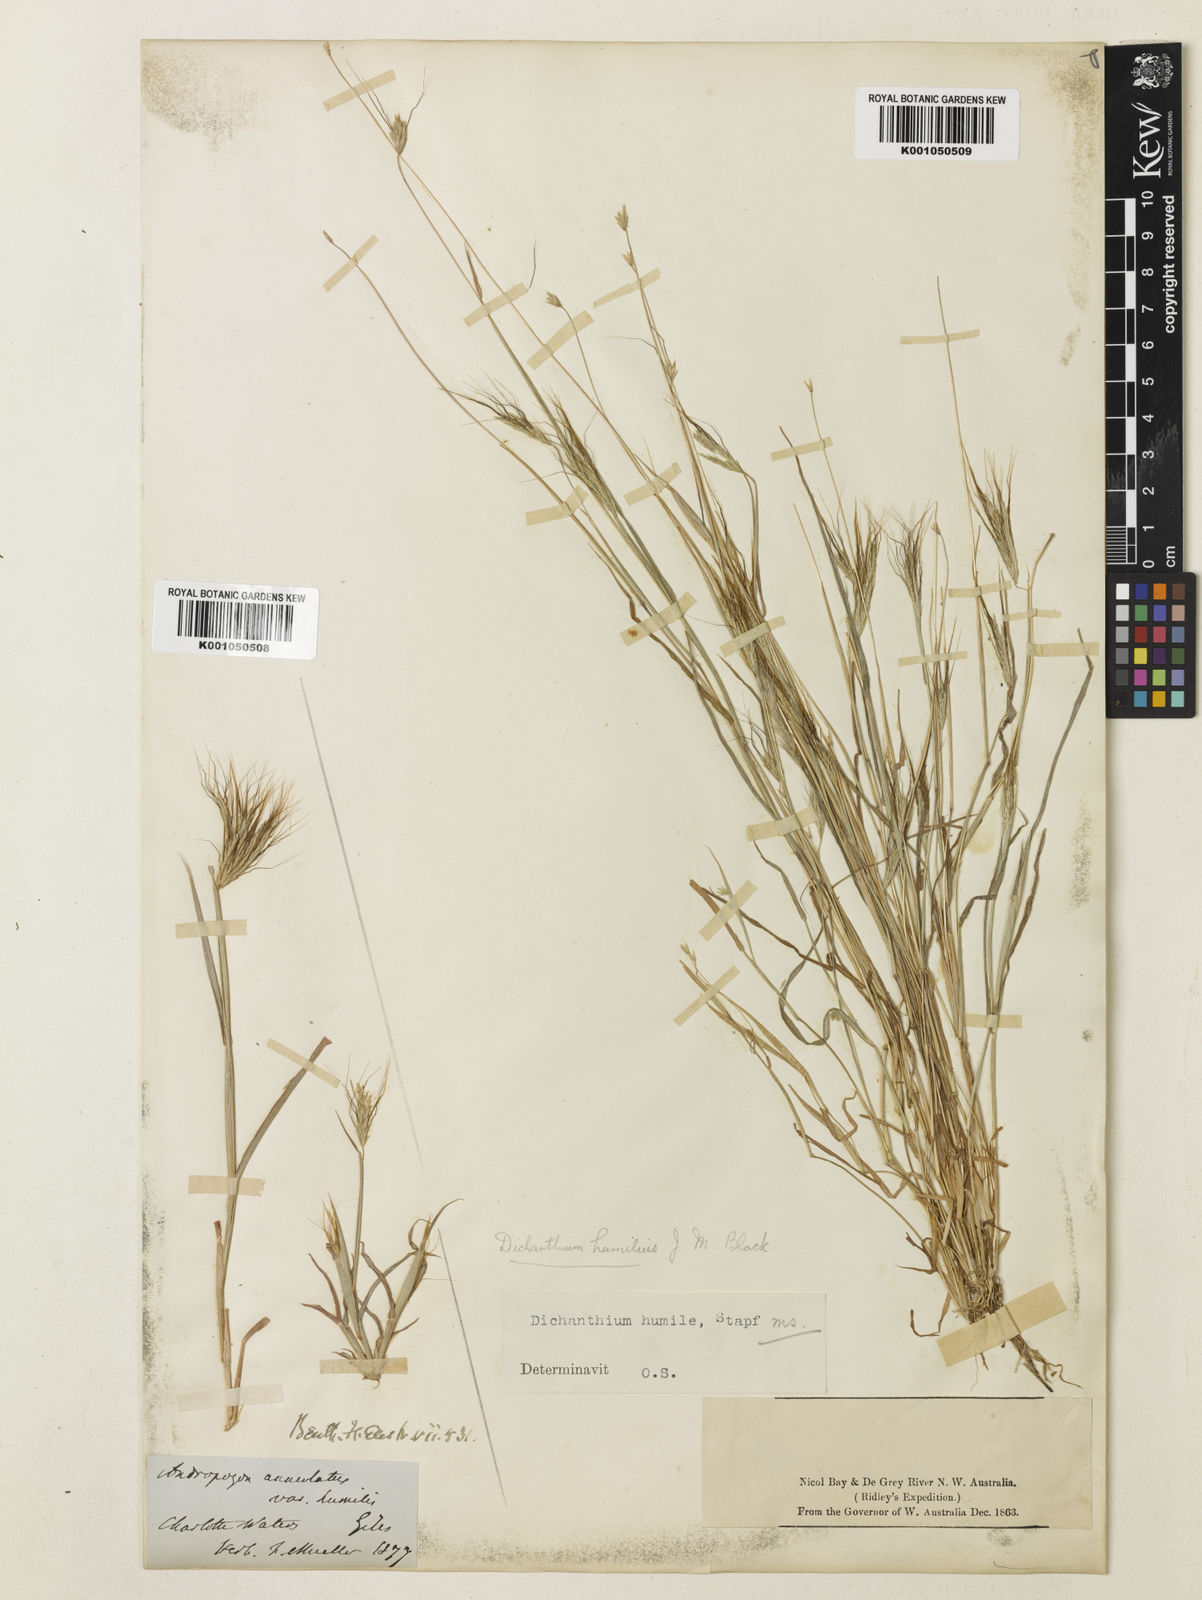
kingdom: Plantae
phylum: Tracheophyta
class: Liliopsida
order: Poales
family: Poaceae
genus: Dichanthium
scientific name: Dichanthium sericeum
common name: Silky bluestem
